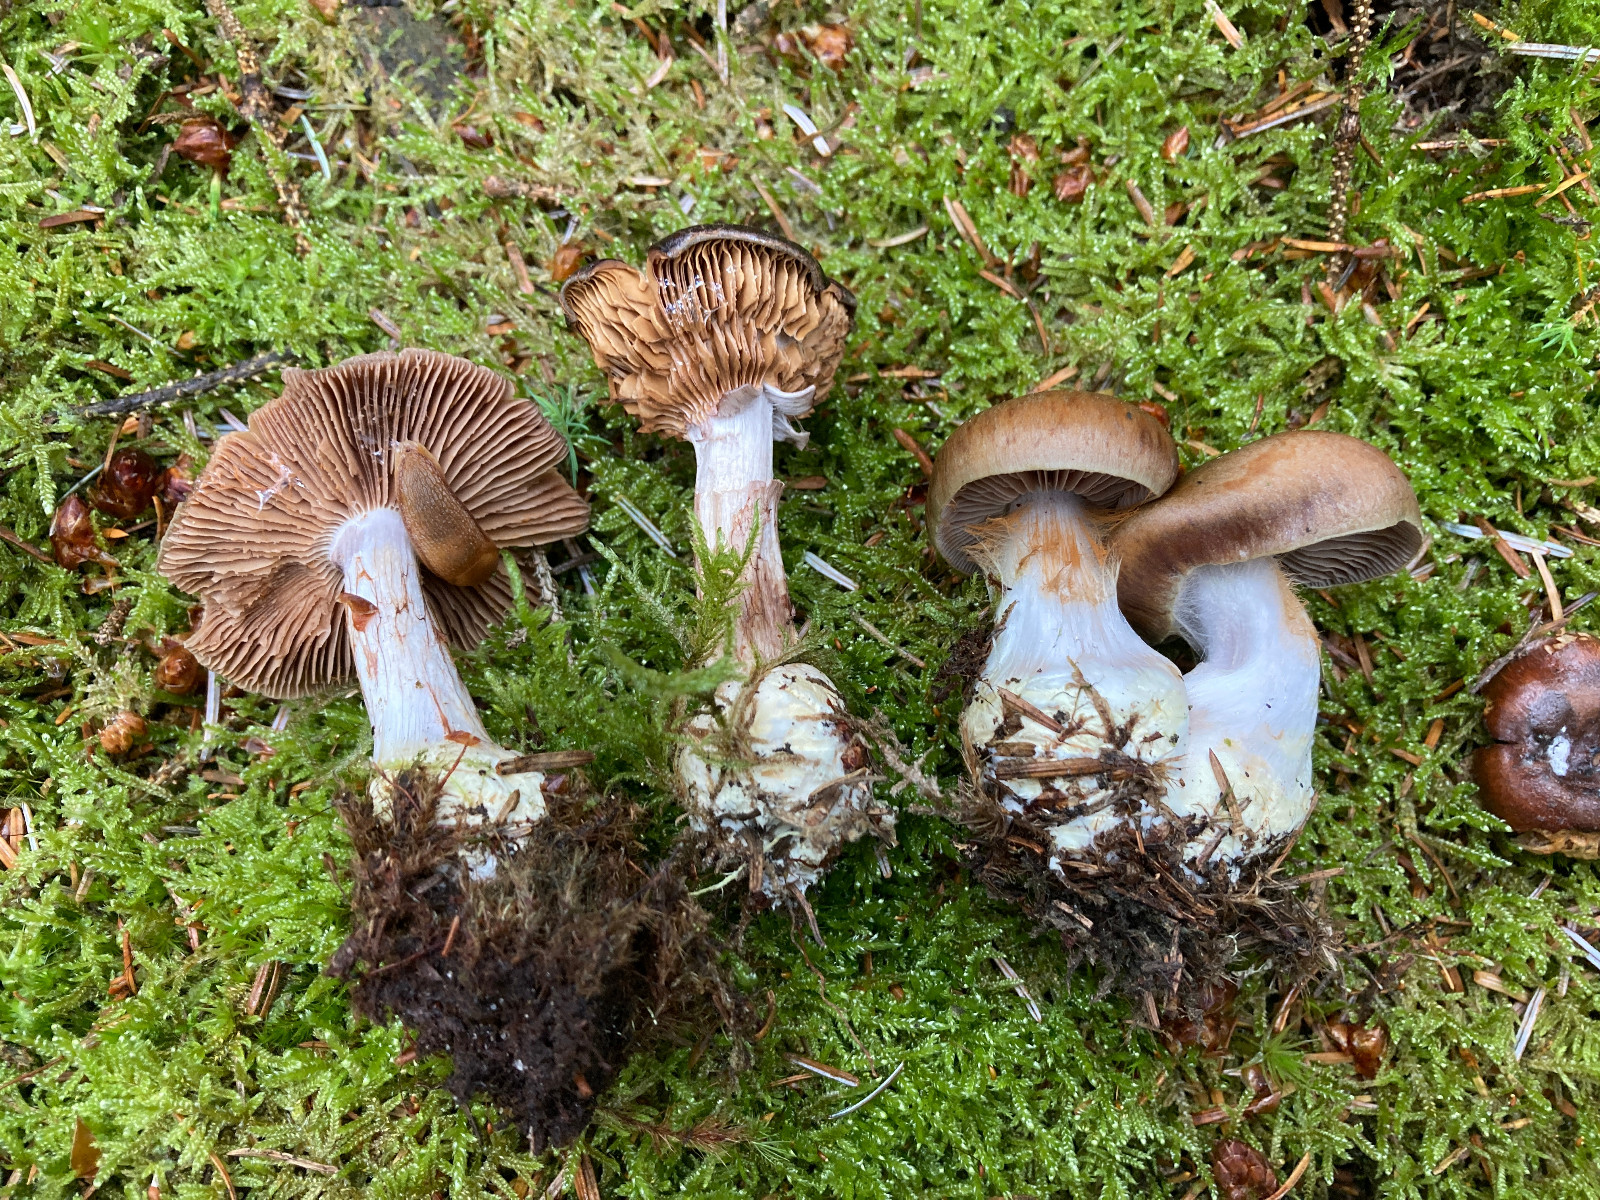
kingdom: Fungi
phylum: Basidiomycota
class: Agaricomycetes
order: Agaricales
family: Cortinariaceae
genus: Thaxterogaster
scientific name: Thaxterogaster sphagnophilus
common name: vandplettet slørhat
